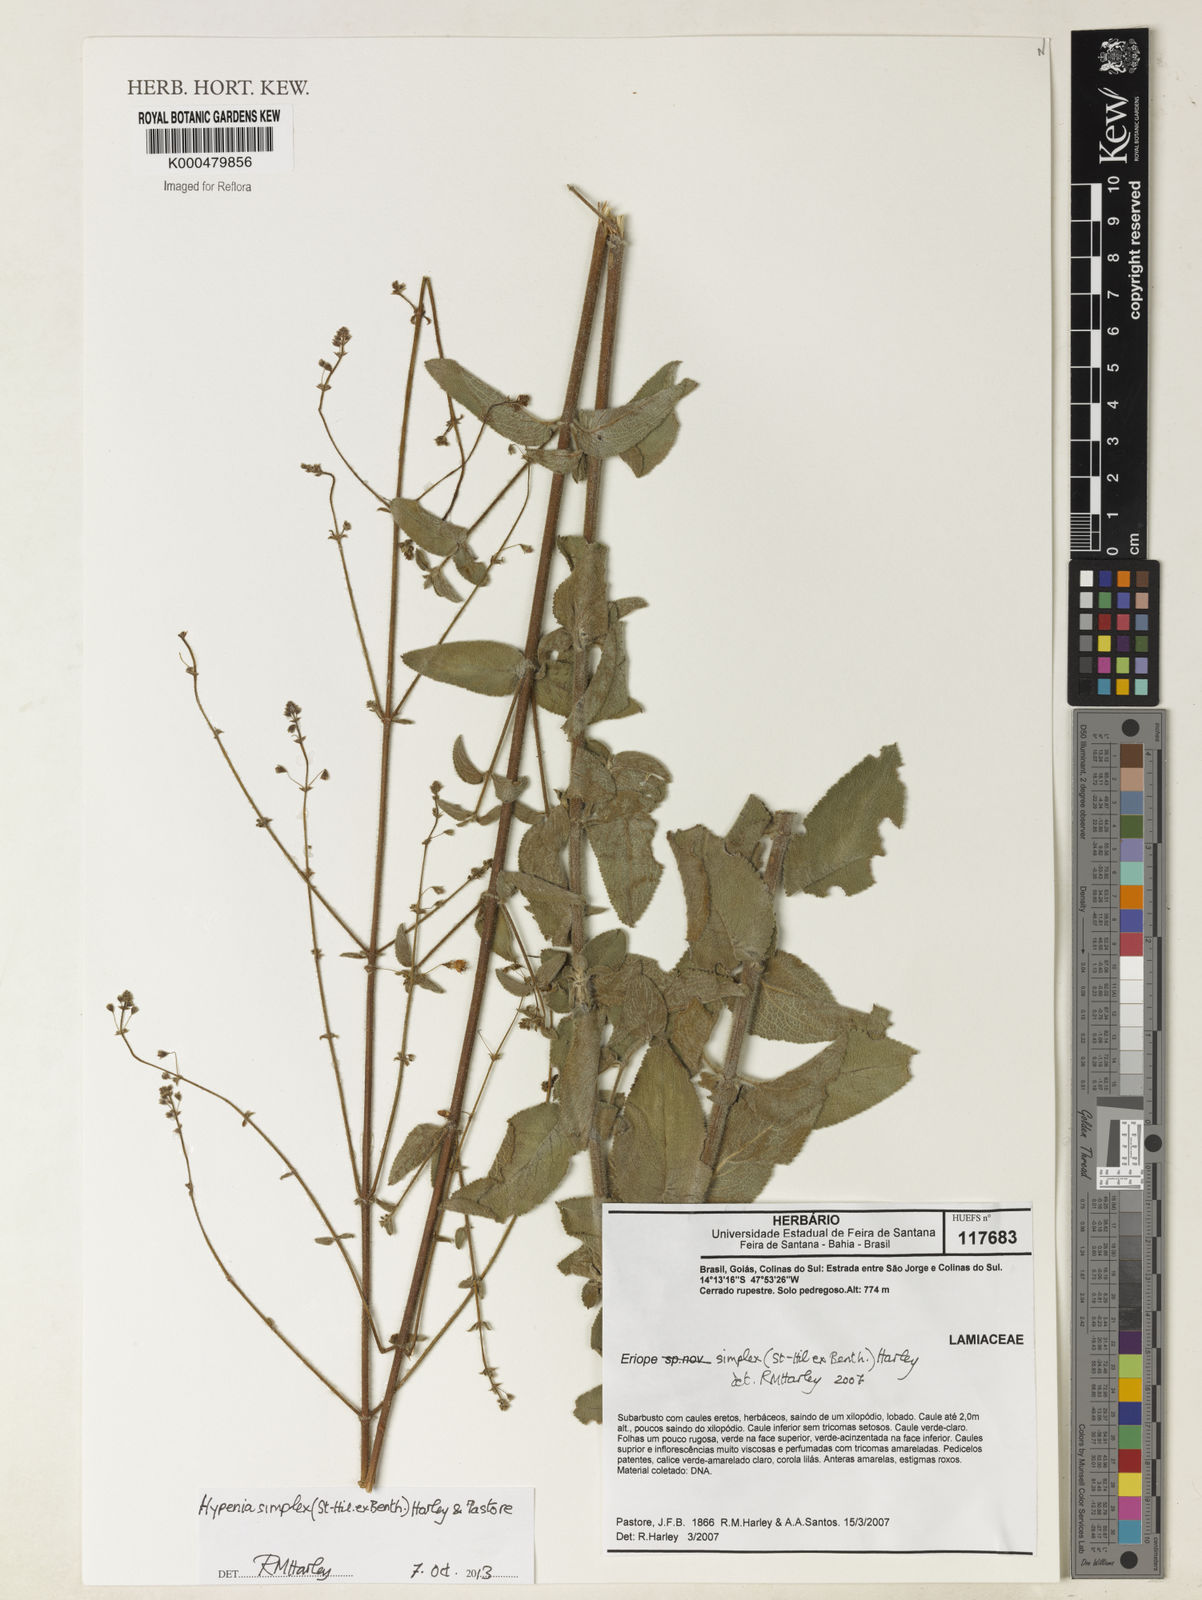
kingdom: Plantae
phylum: Tracheophyta
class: Magnoliopsida
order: Lamiales
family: Lamiaceae
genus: Hypenia
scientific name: Hypenia simplex
